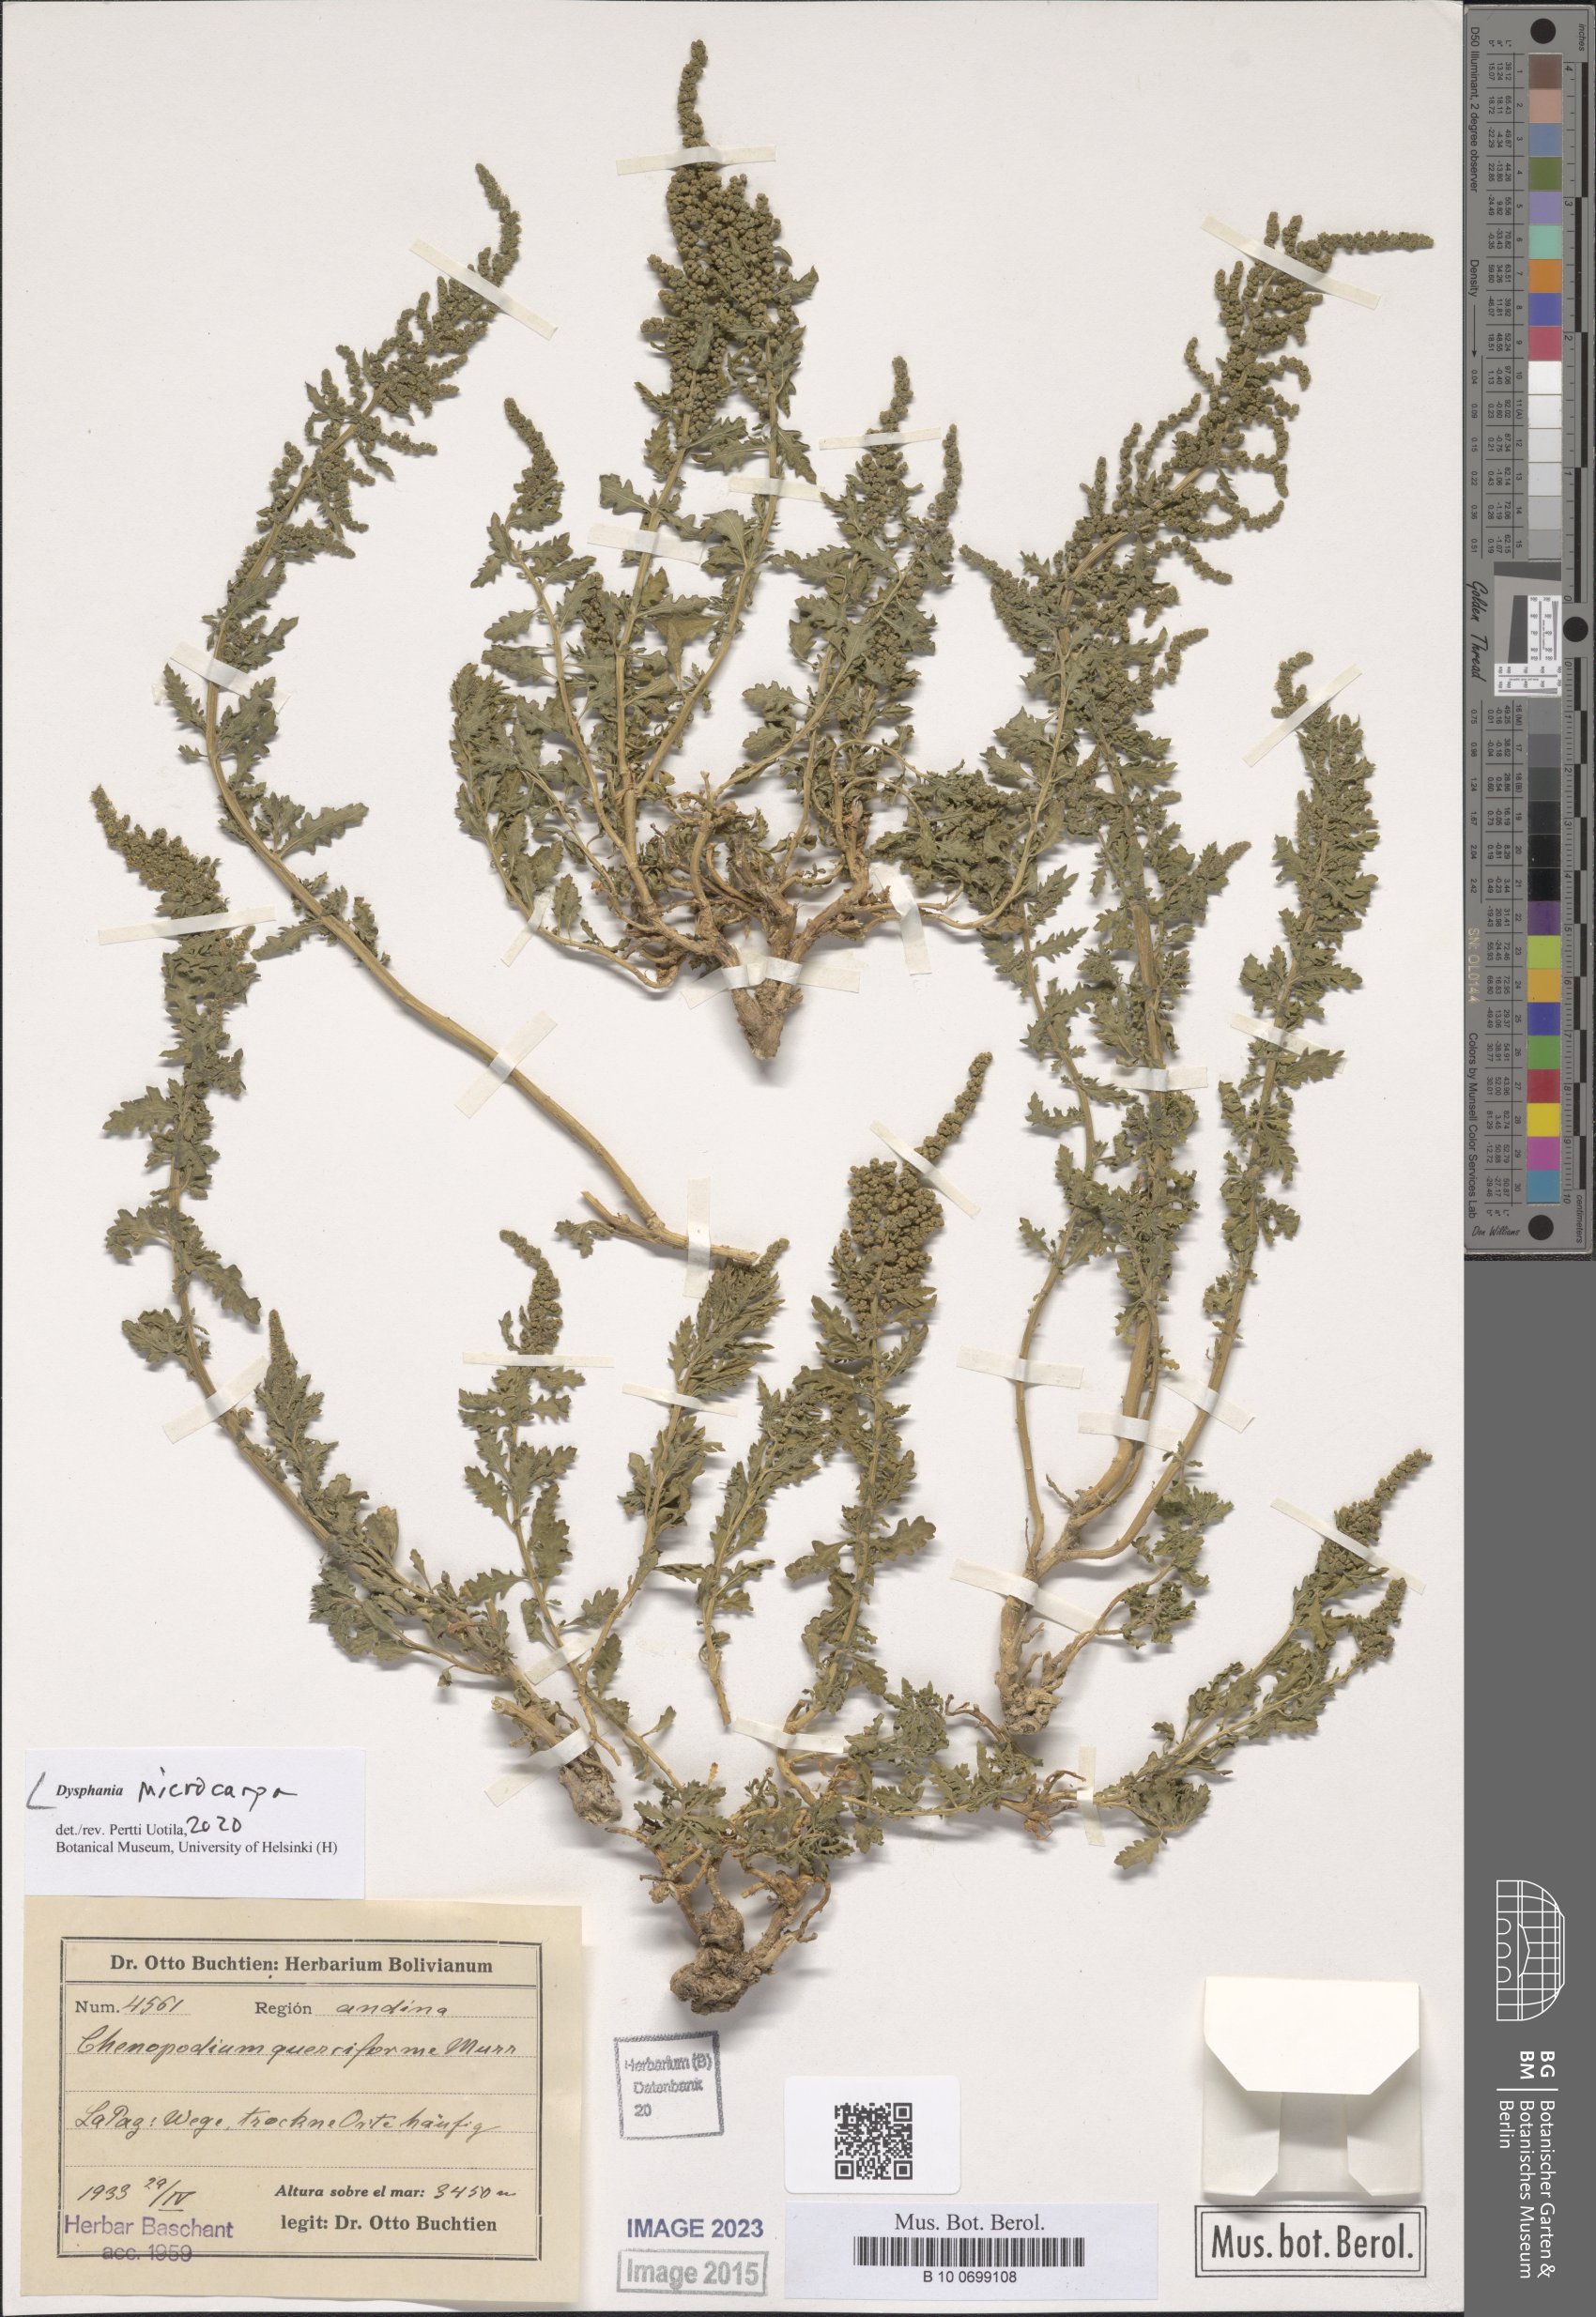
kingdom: Plantae
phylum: Tracheophyta
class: Magnoliopsida
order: Caryophyllales
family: Amaranthaceae
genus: Dysphania
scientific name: Dysphania microcarpa
